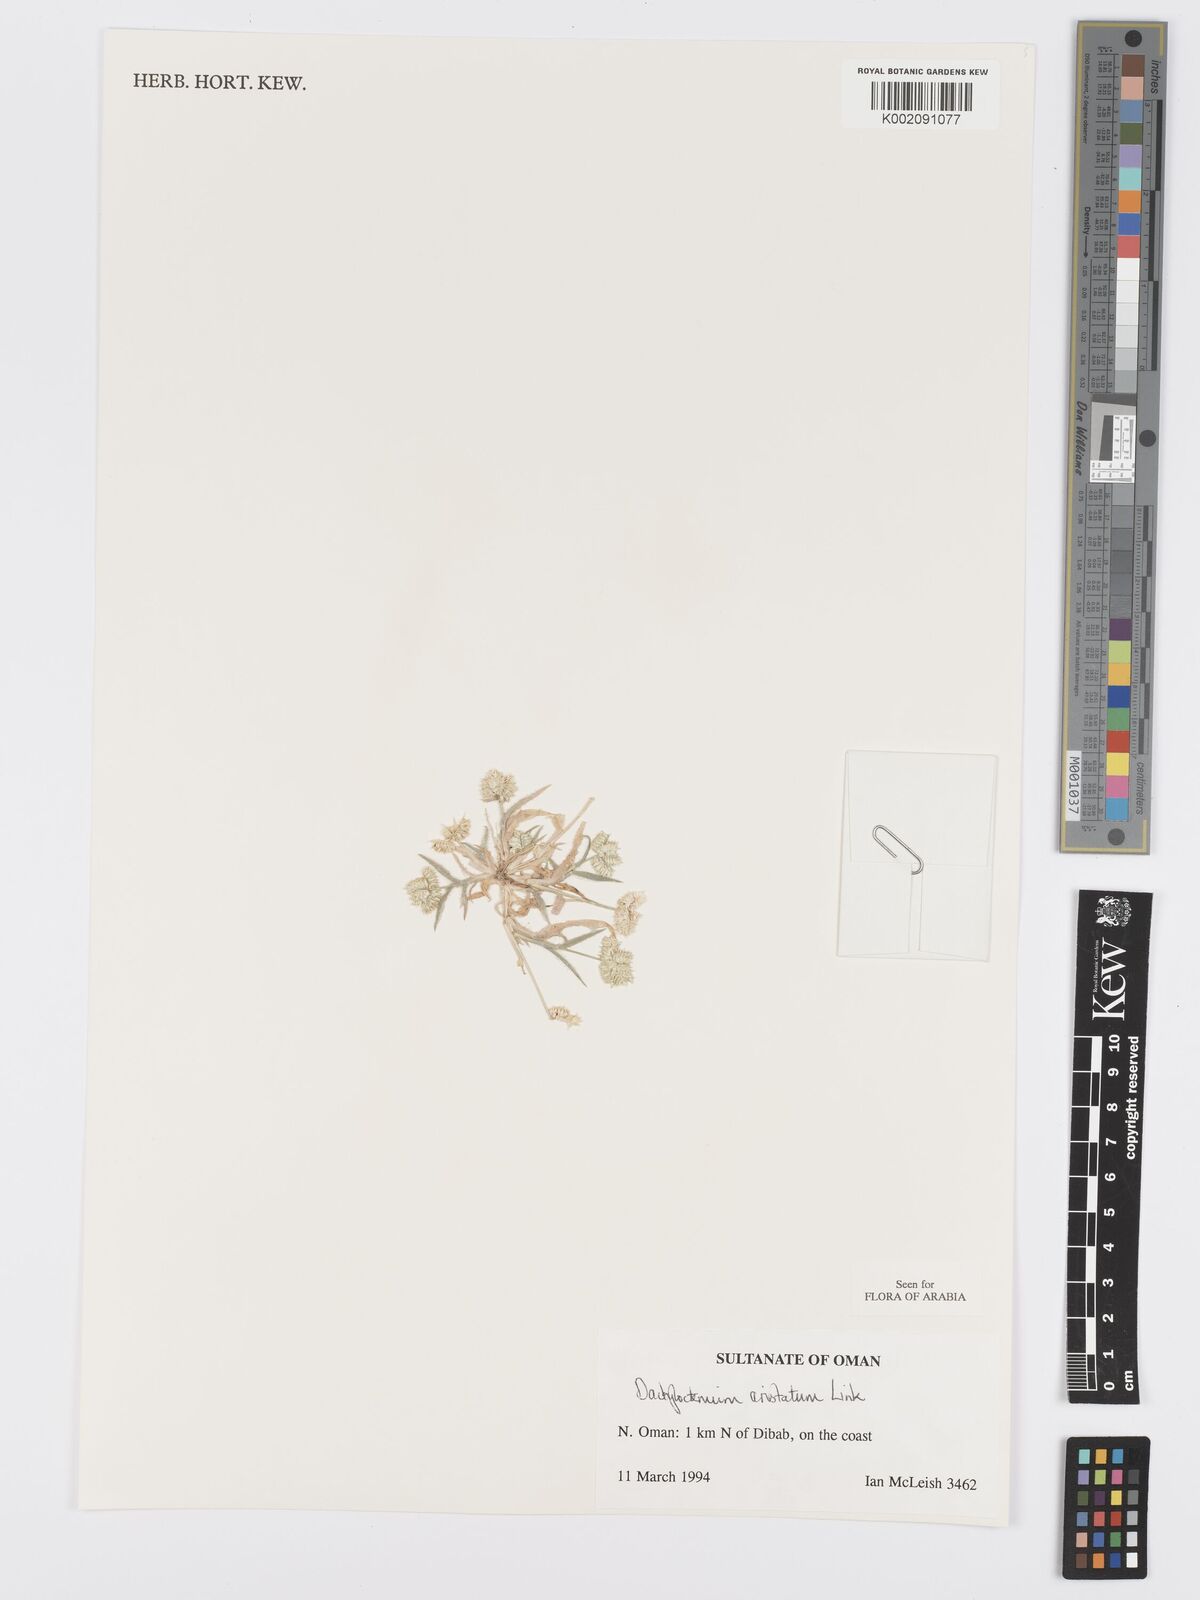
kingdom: Plantae
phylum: Tracheophyta
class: Liliopsida
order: Poales
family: Poaceae
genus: Dactyloctenium
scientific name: Dactyloctenium aristatum
